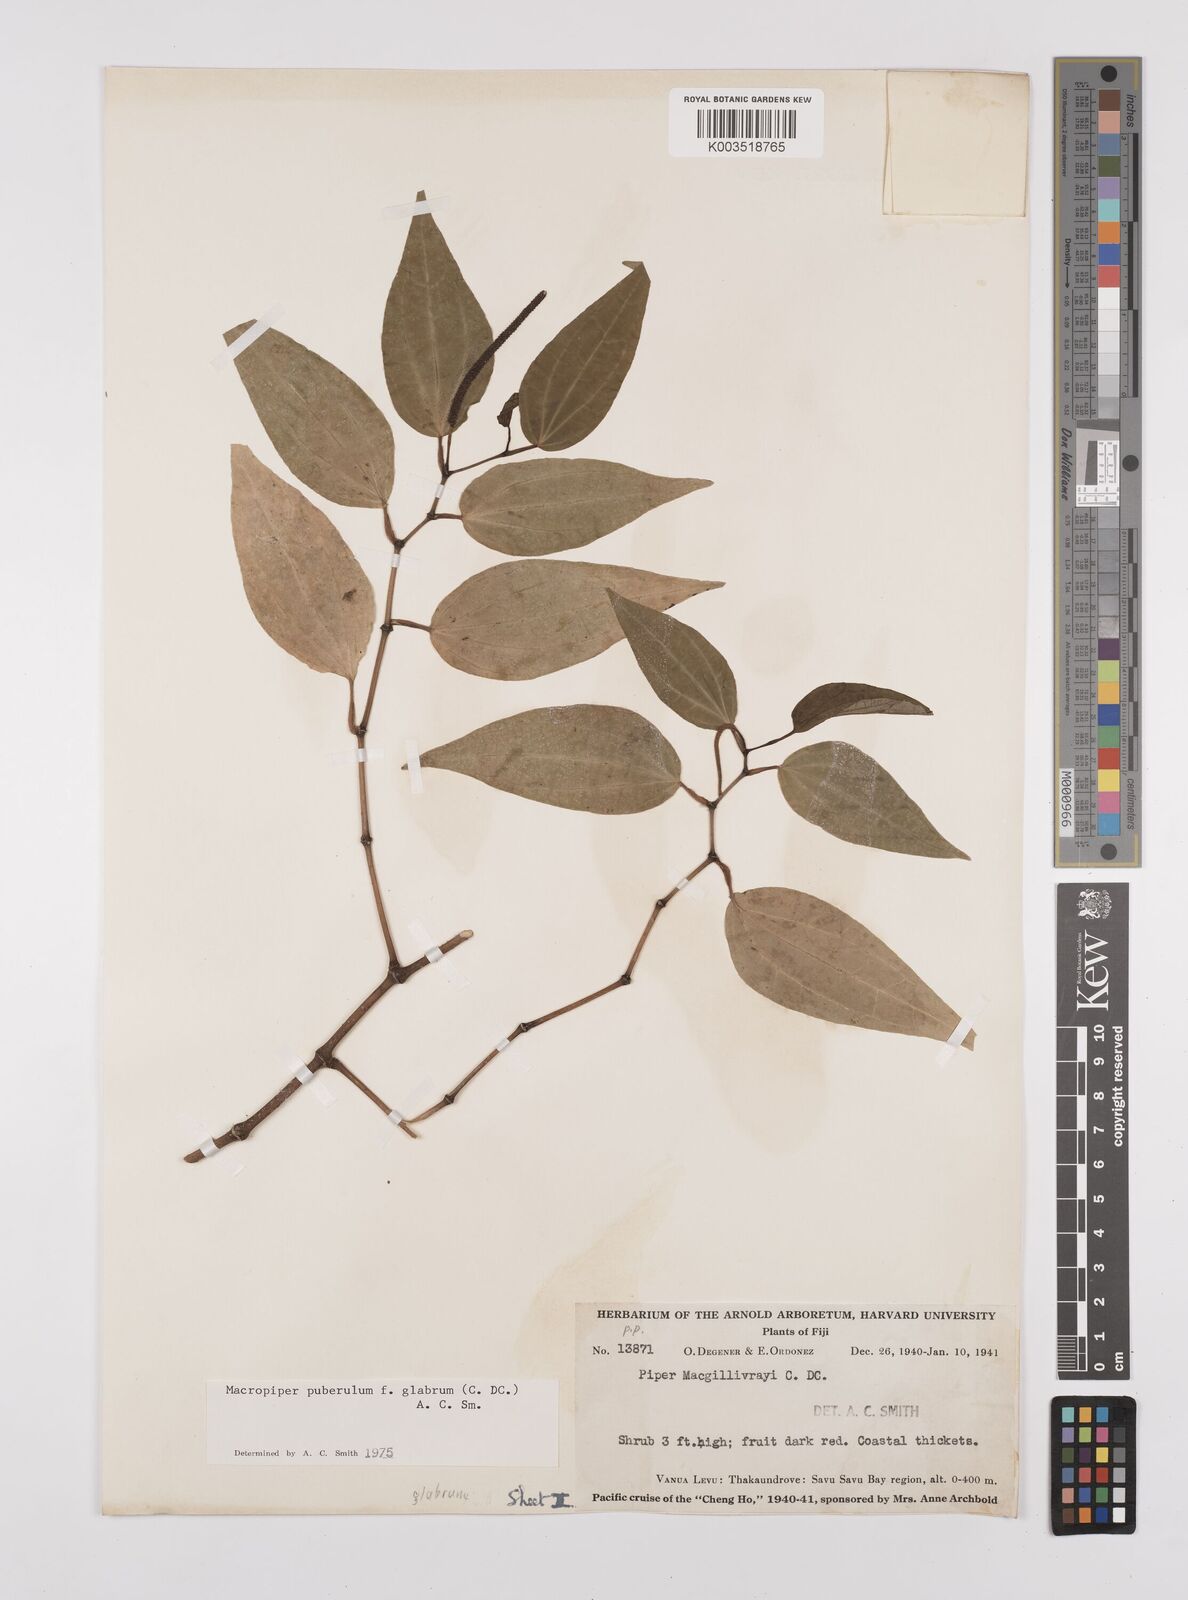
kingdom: Plantae
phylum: Tracheophyta
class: Magnoliopsida
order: Piperales
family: Piperaceae
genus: Macropiper
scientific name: Macropiper puberulum
